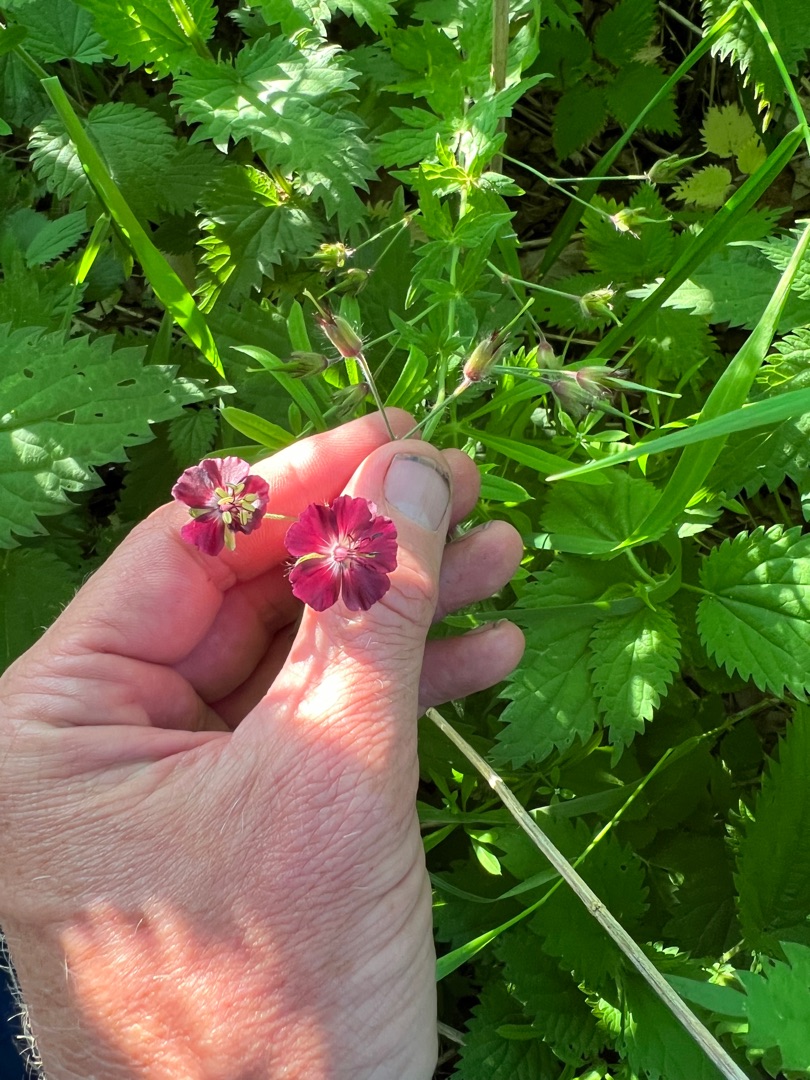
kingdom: Plantae
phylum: Tracheophyta
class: Magnoliopsida
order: Geraniales
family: Geraniaceae
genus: Geranium
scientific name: Geranium phaeum
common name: Bølgekronet storkenæb
